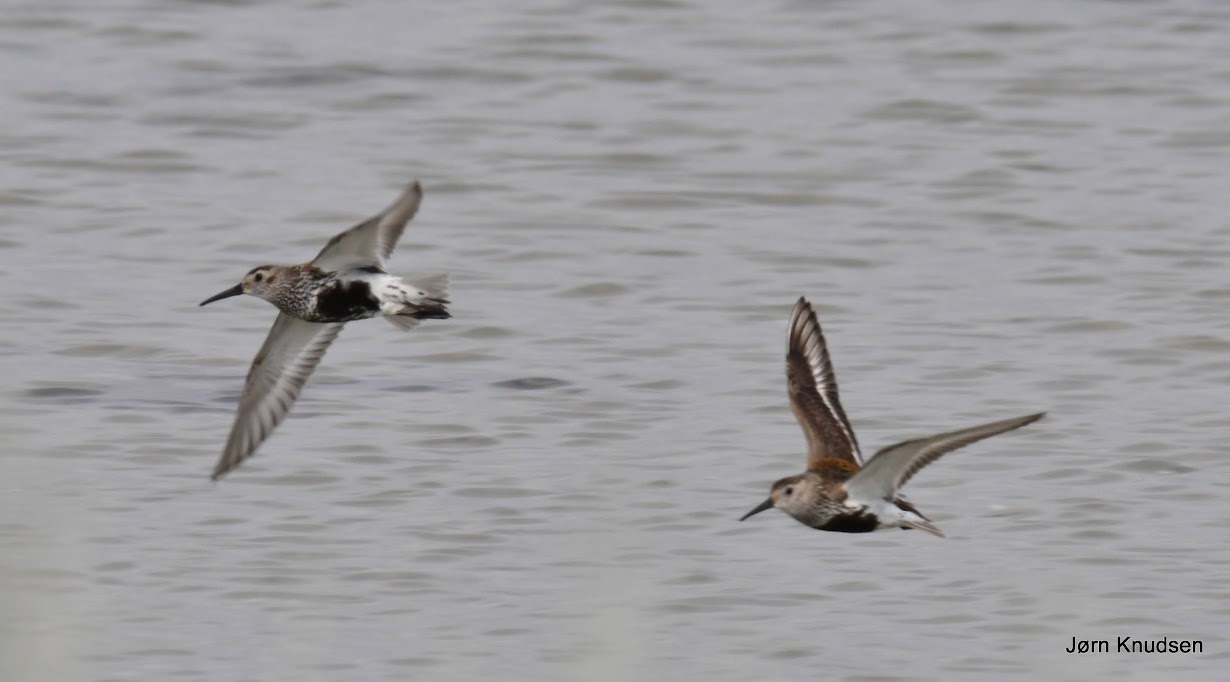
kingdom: Animalia
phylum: Chordata
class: Aves
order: Charadriiformes
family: Scolopacidae
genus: Calidris
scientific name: Calidris alpina
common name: Almindelig ryle
